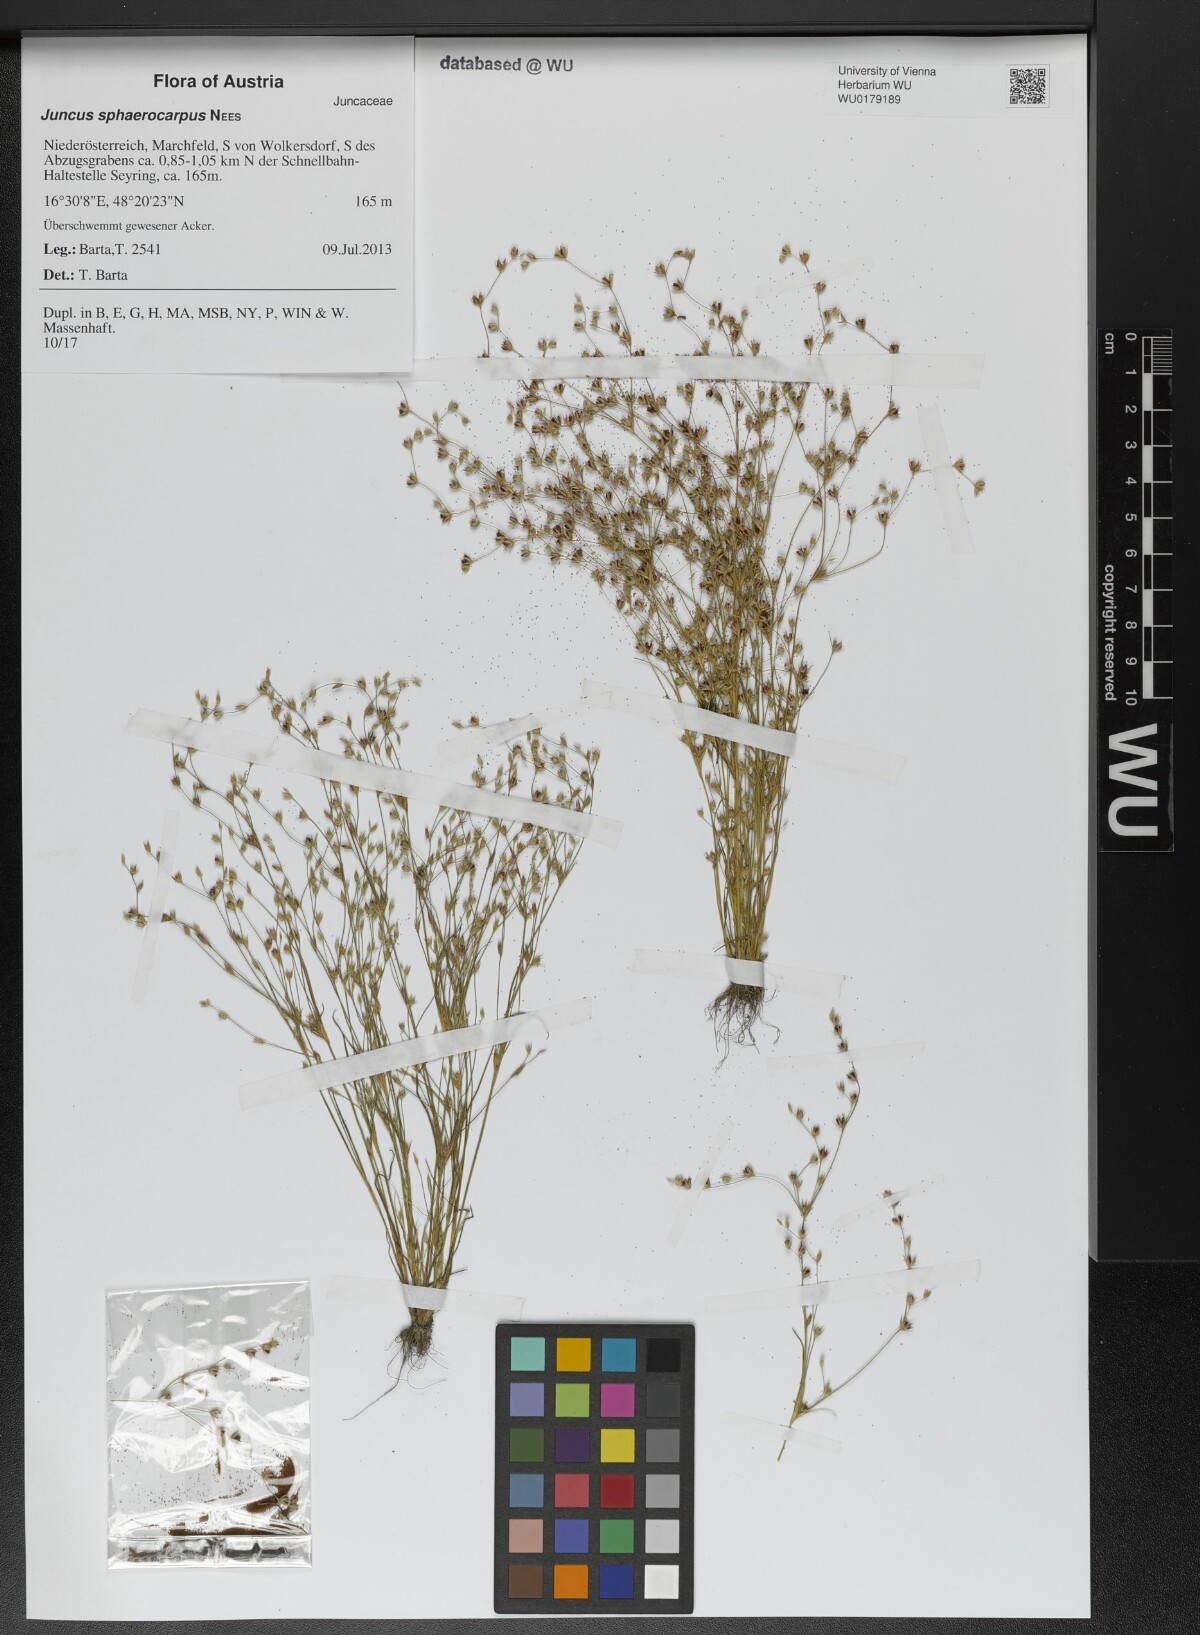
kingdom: Plantae
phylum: Tracheophyta
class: Liliopsida
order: Poales
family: Juncaceae
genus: Juncus
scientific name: Juncus sphaerocarpus
